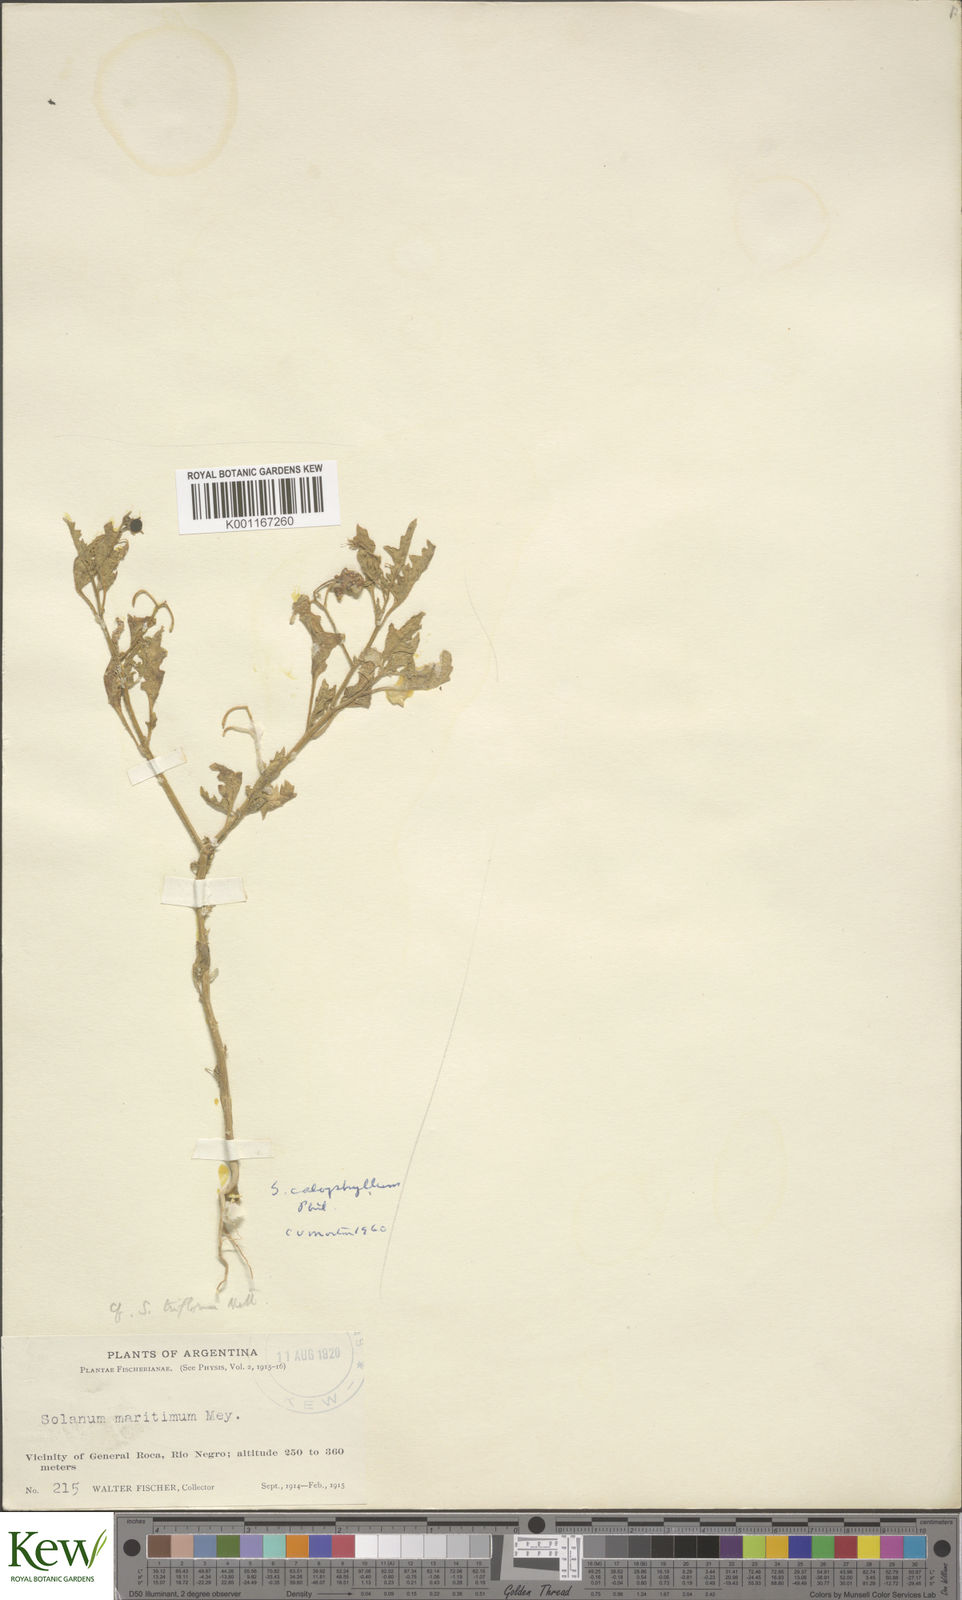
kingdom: Plantae
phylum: Tracheophyta
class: Magnoliopsida
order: Solanales
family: Solanaceae
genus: Solanum
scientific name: Solanum triflorum
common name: Small nightshade
